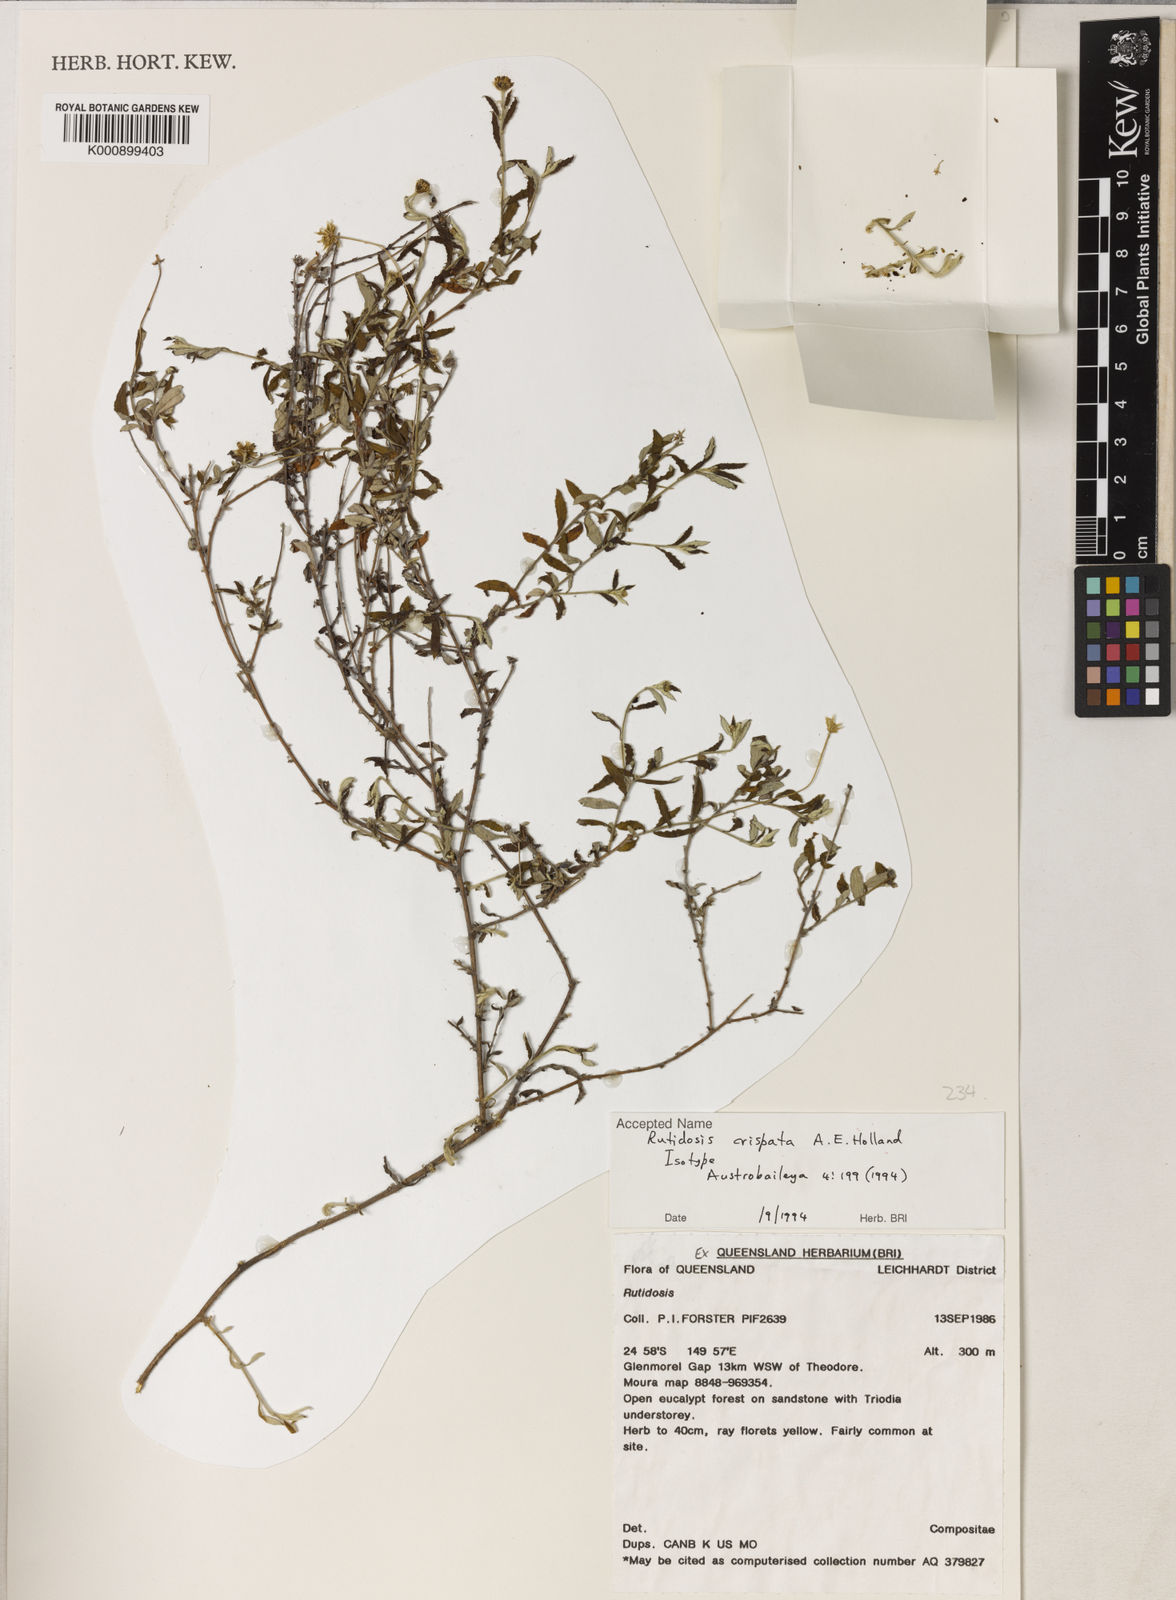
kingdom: Plantae
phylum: Tracheophyta
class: Magnoliopsida
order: Asterales
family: Asteraceae
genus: Rutidosis
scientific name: Rutidosis crispata
